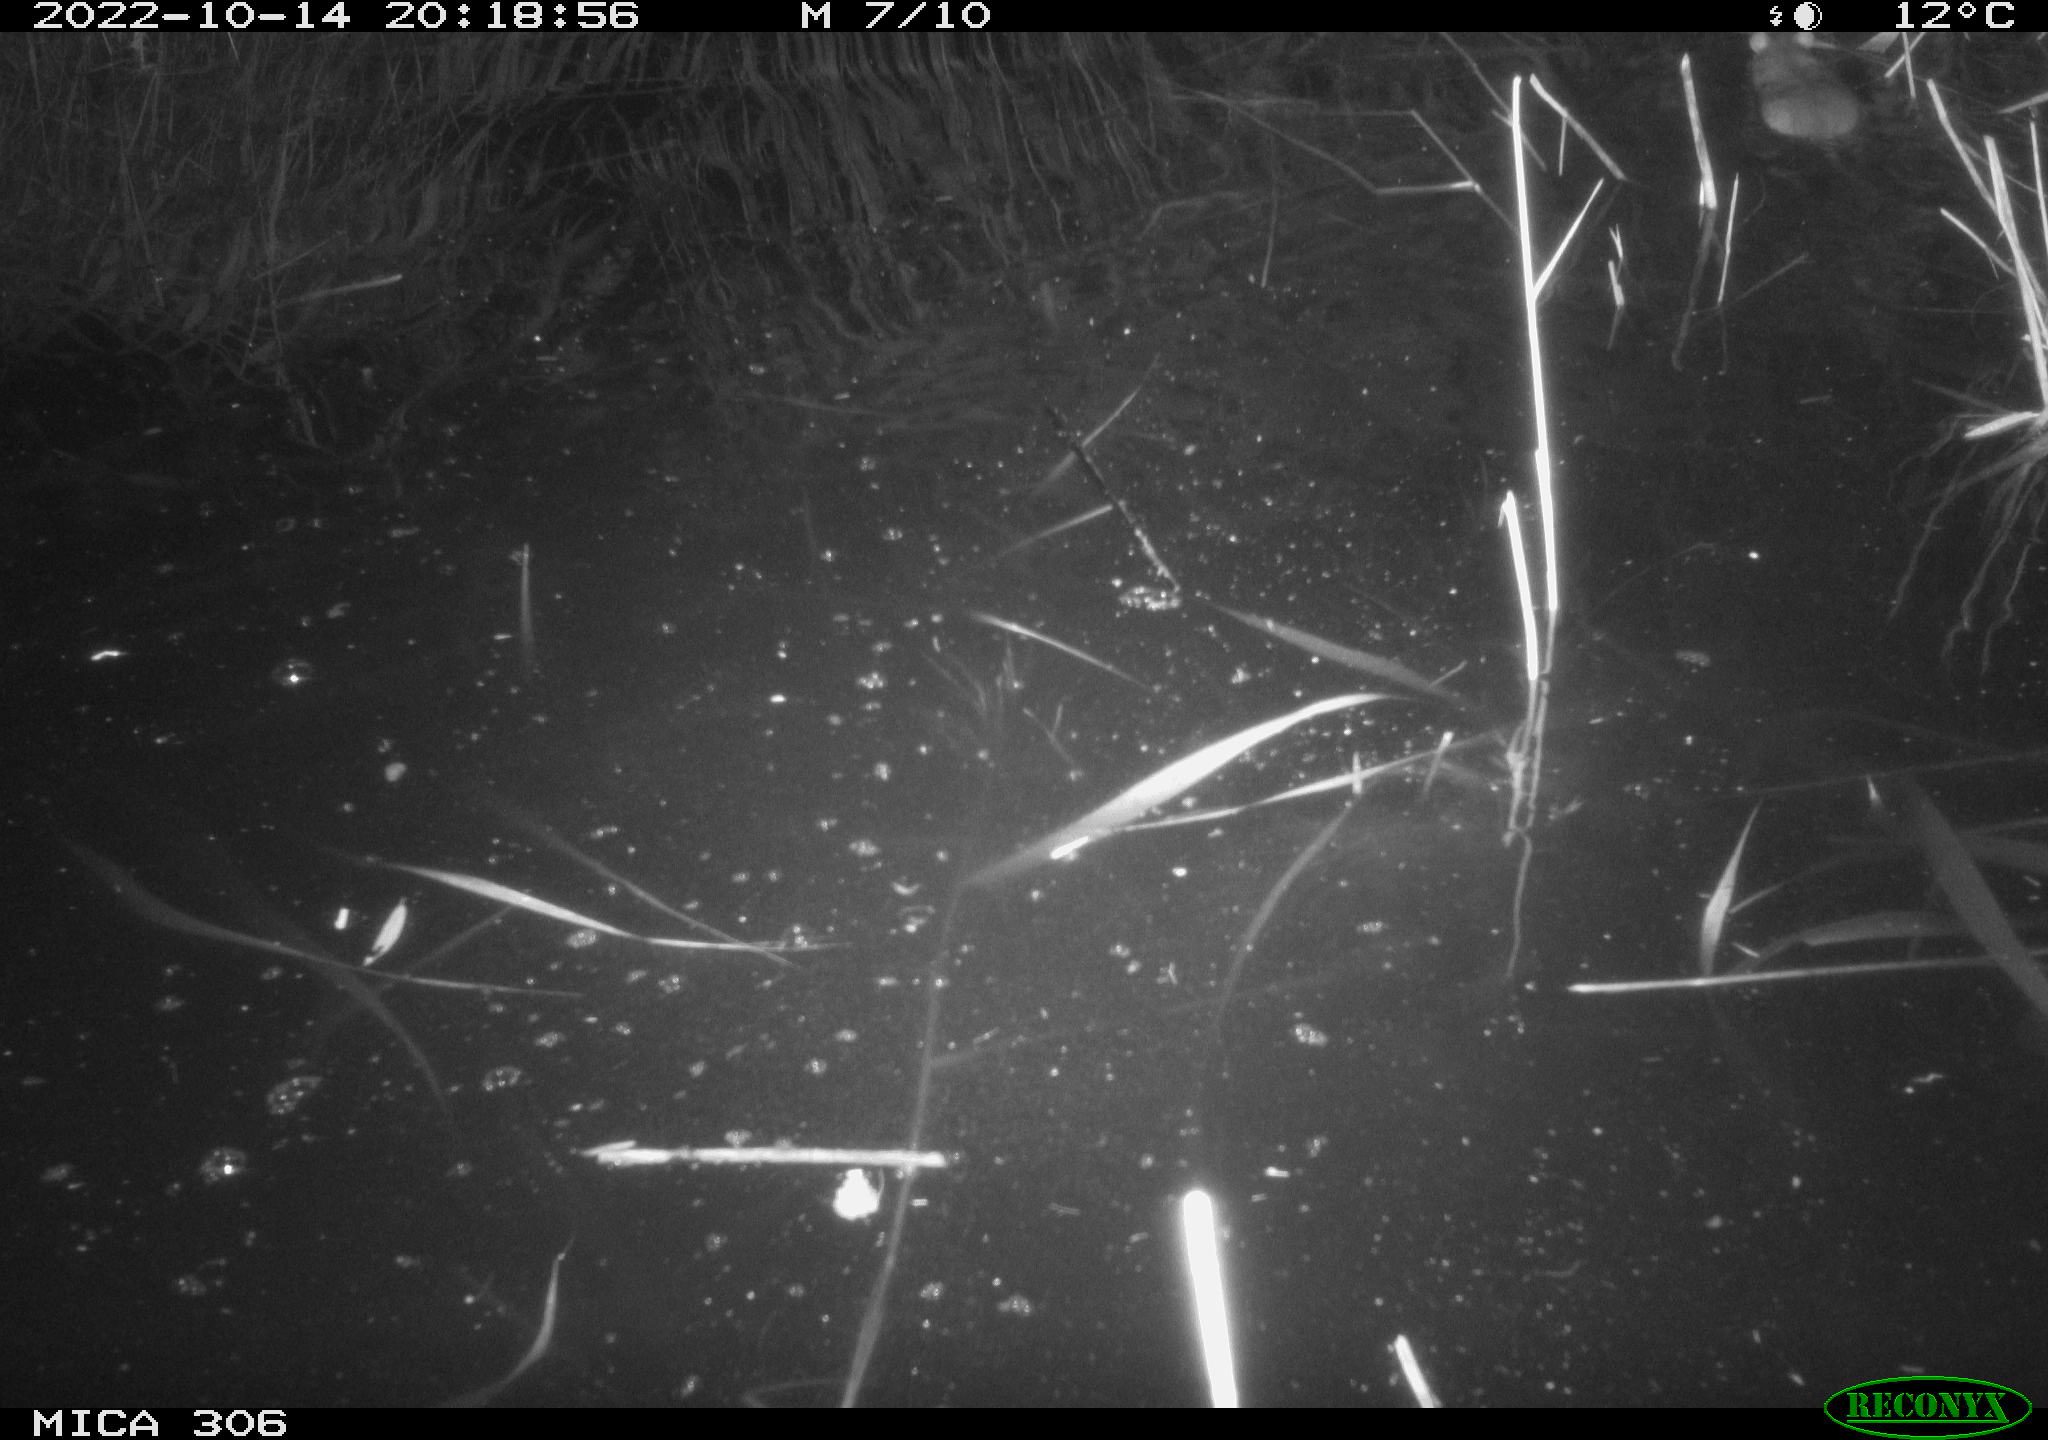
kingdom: Animalia
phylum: Chordata
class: Mammalia
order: Rodentia
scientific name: Rodentia
